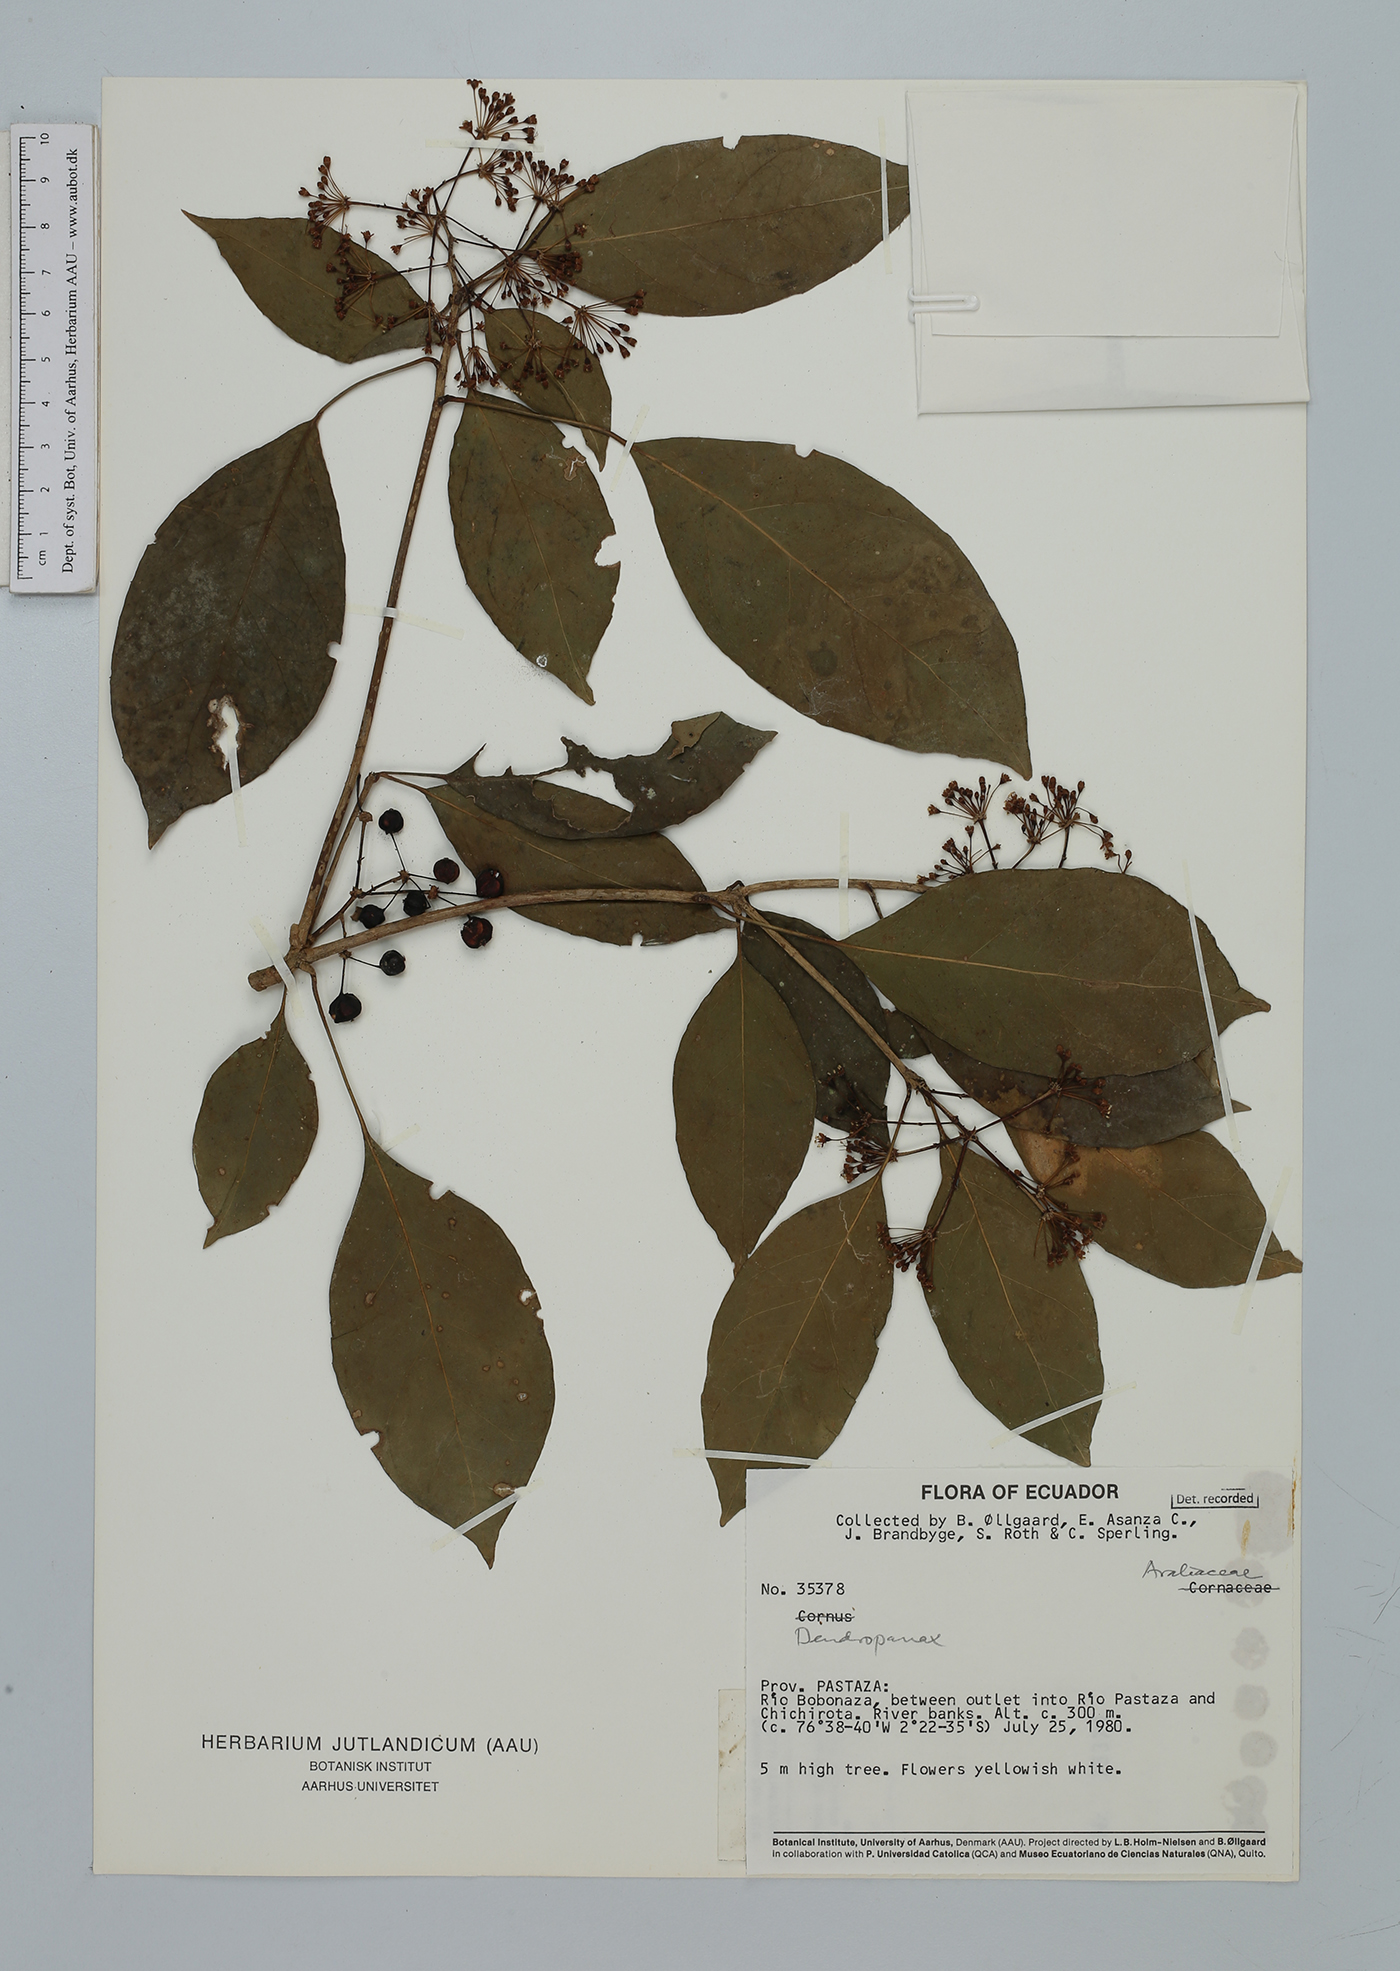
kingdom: Plantae
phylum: Tracheophyta
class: Magnoliopsida
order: Apiales
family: Araliaceae
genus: Dendropanax
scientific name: Dendropanax
